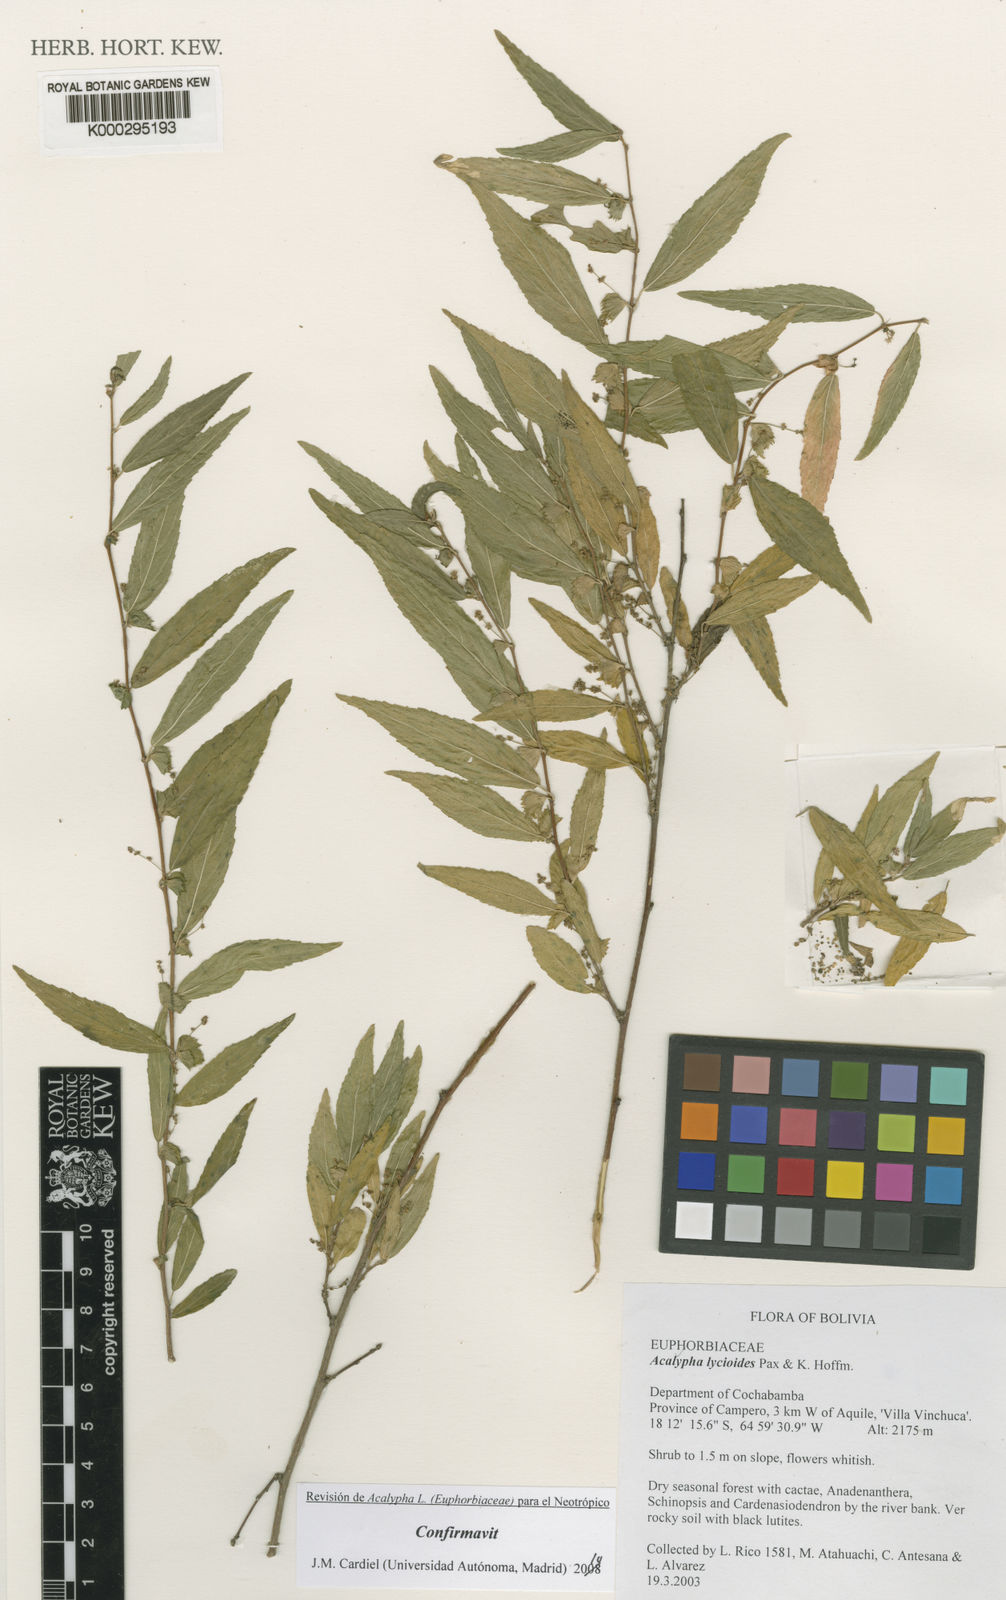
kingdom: Plantae
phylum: Tracheophyta
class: Magnoliopsida
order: Malpighiales
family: Euphorbiaceae
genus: Acalypha
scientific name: Acalypha lycioides
